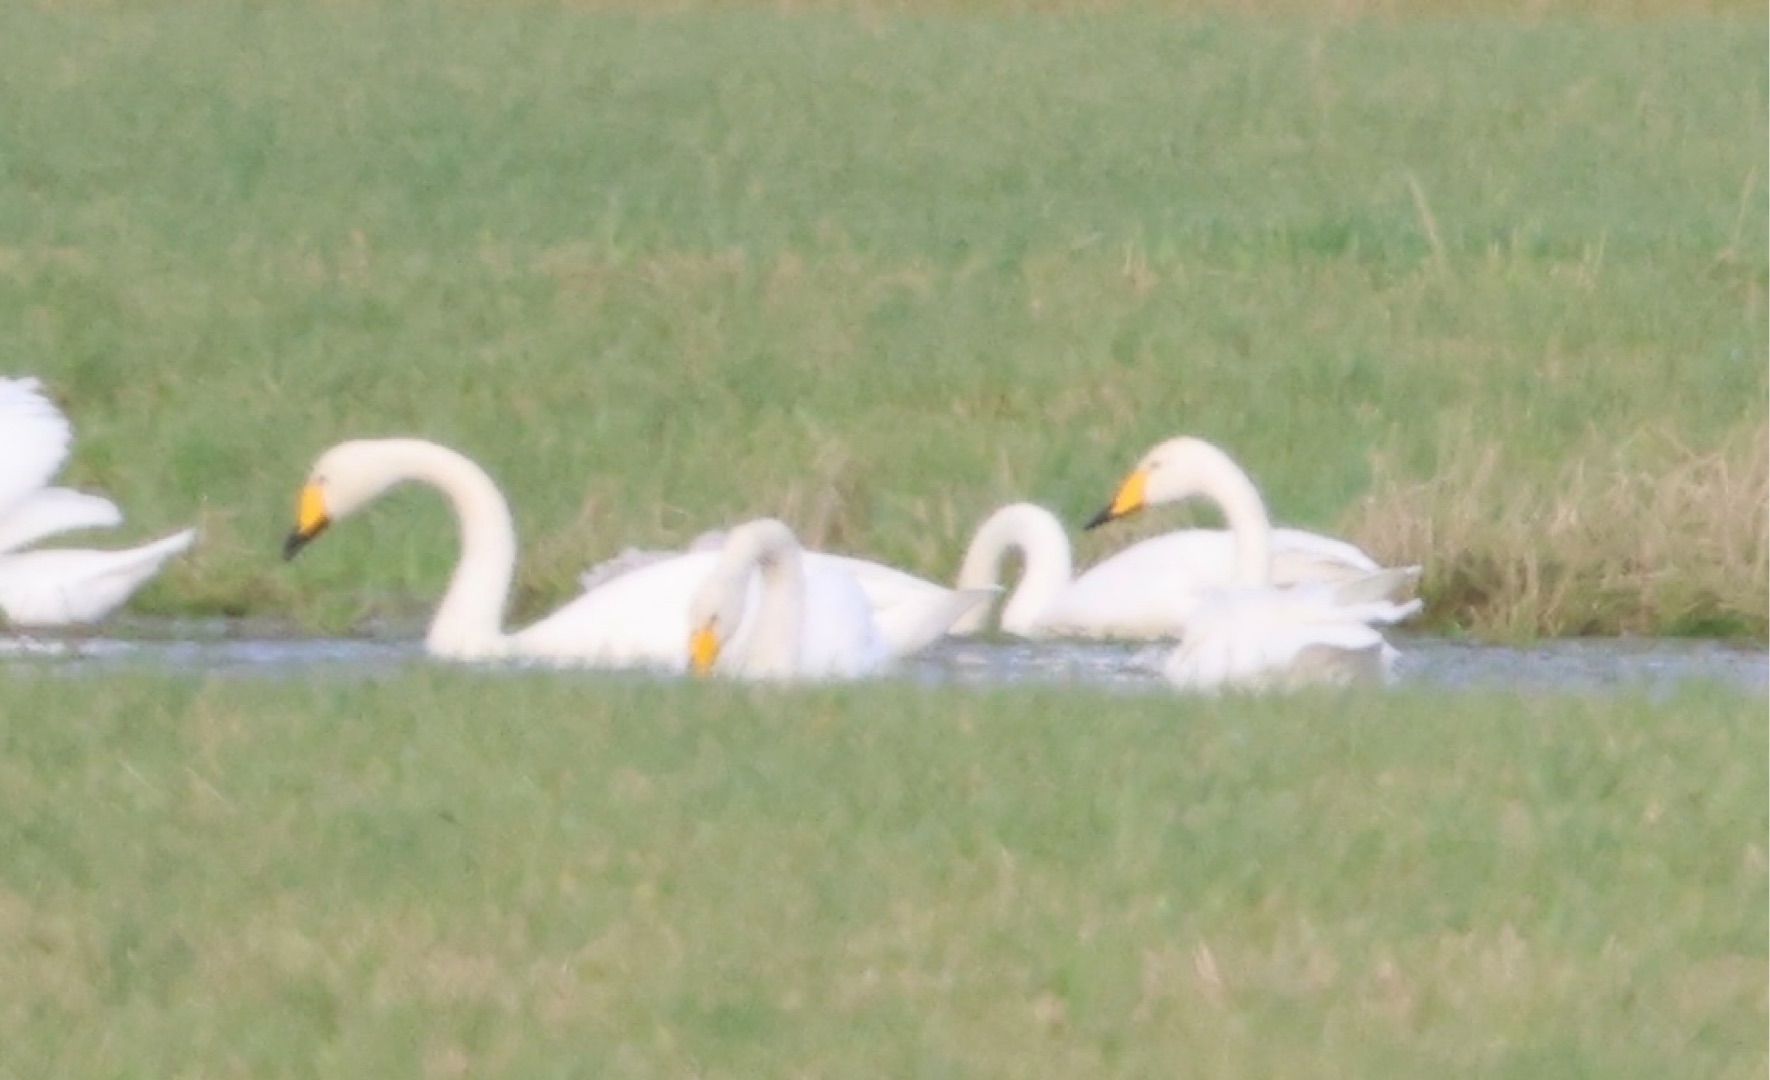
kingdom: Animalia
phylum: Chordata
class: Aves
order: Anseriformes
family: Anatidae
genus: Cygnus
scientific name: Cygnus cygnus
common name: Sangsvane
